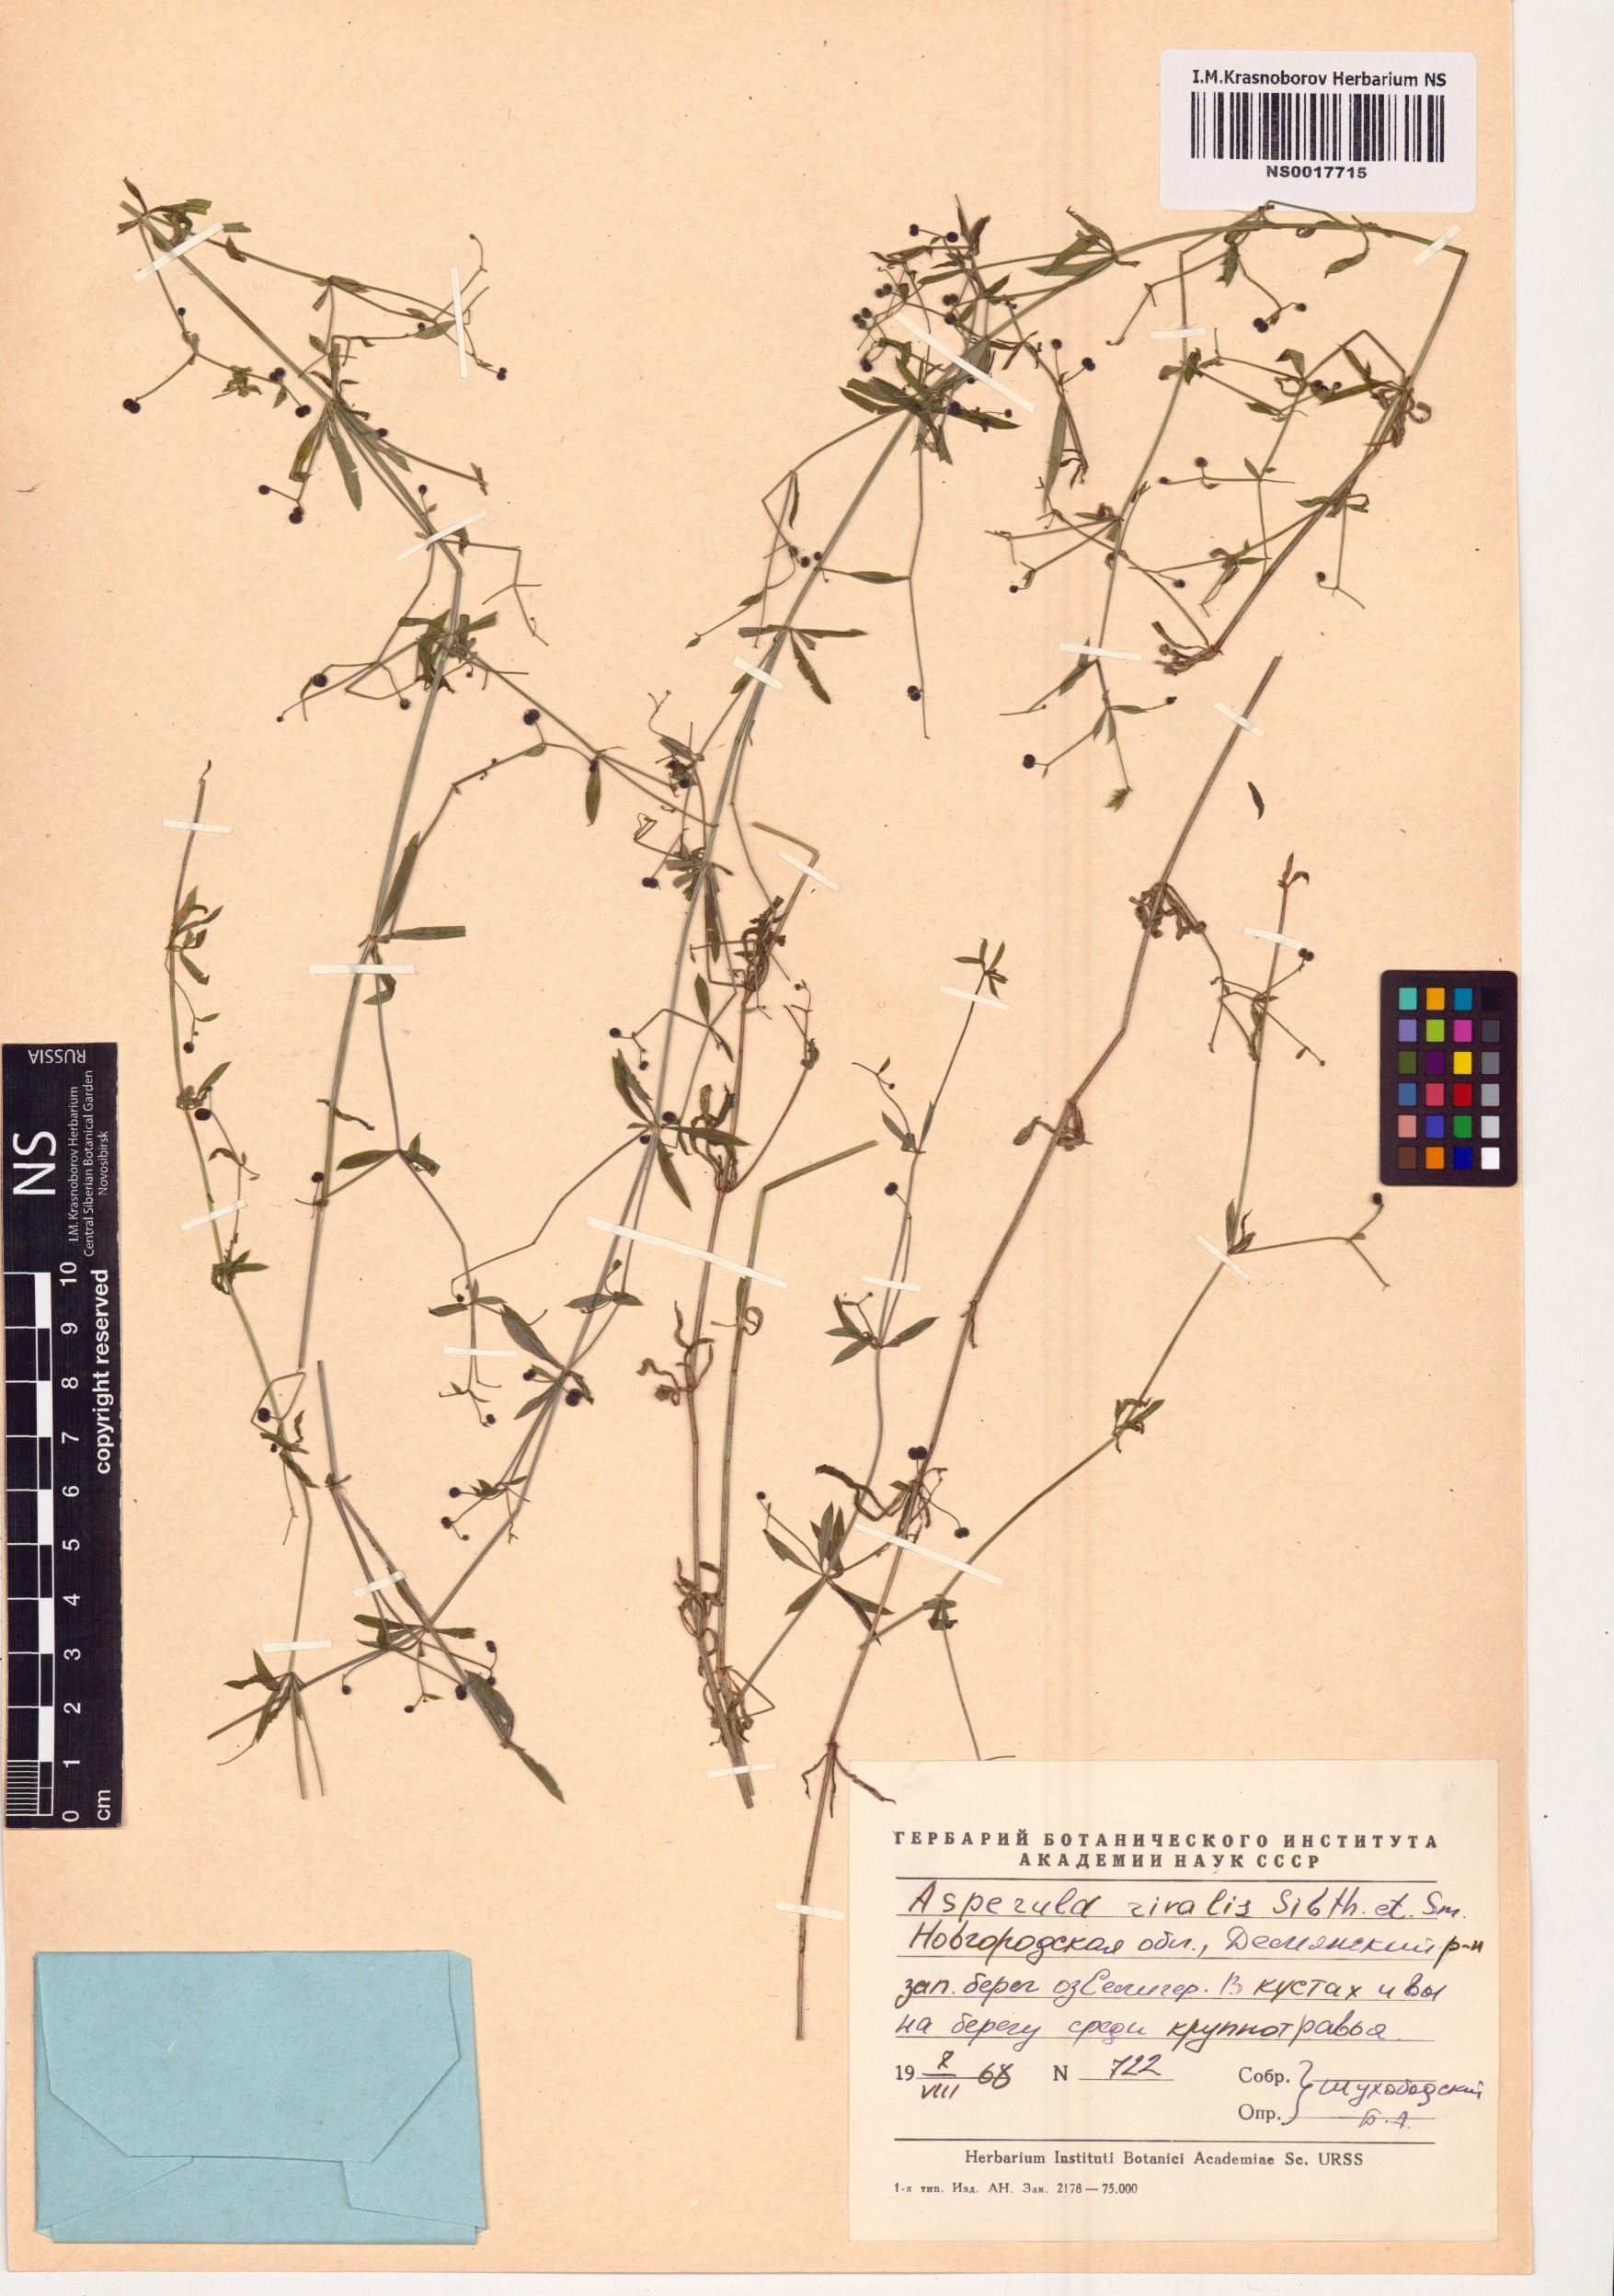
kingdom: Plantae
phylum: Tracheophyta
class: Magnoliopsida
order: Gentianales
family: Rubiaceae
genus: Galium
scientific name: Galium rivale
